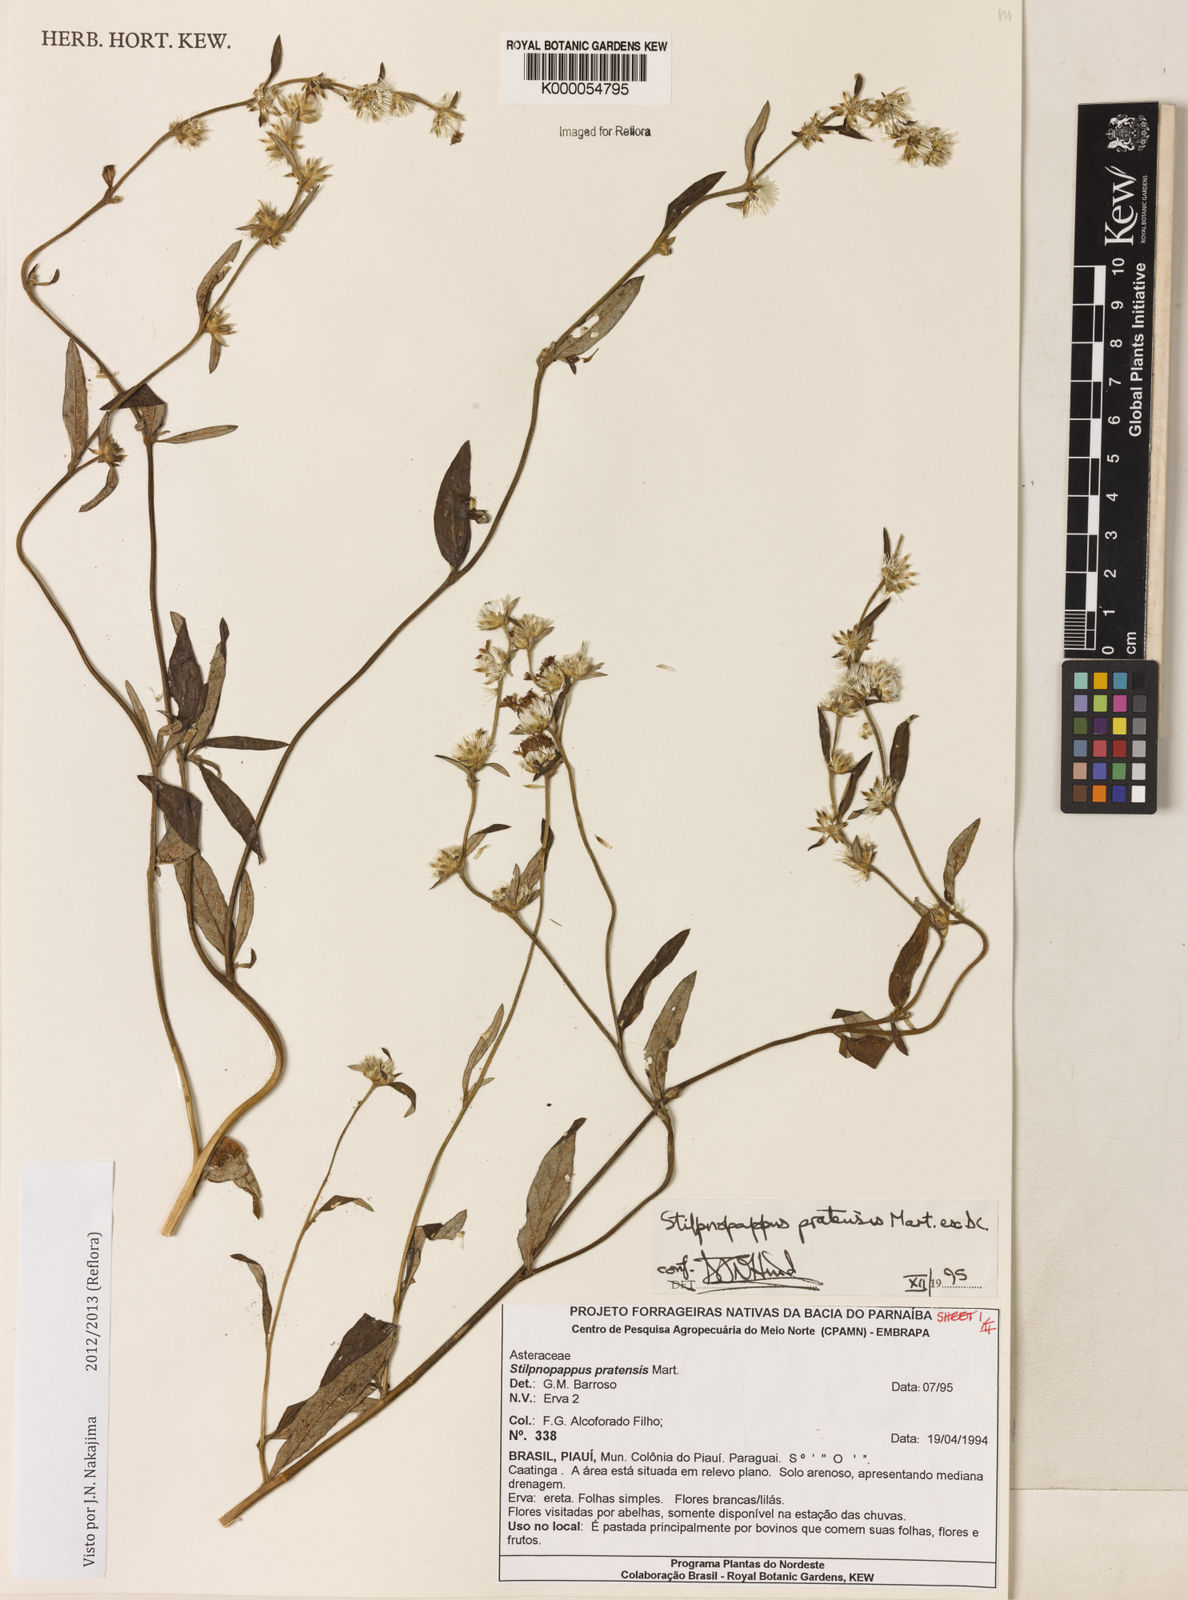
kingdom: Plantae
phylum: Tracheophyta
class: Magnoliopsida
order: Asterales
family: Asteraceae
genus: Stilpnopappus
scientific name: Stilpnopappus pratensis
